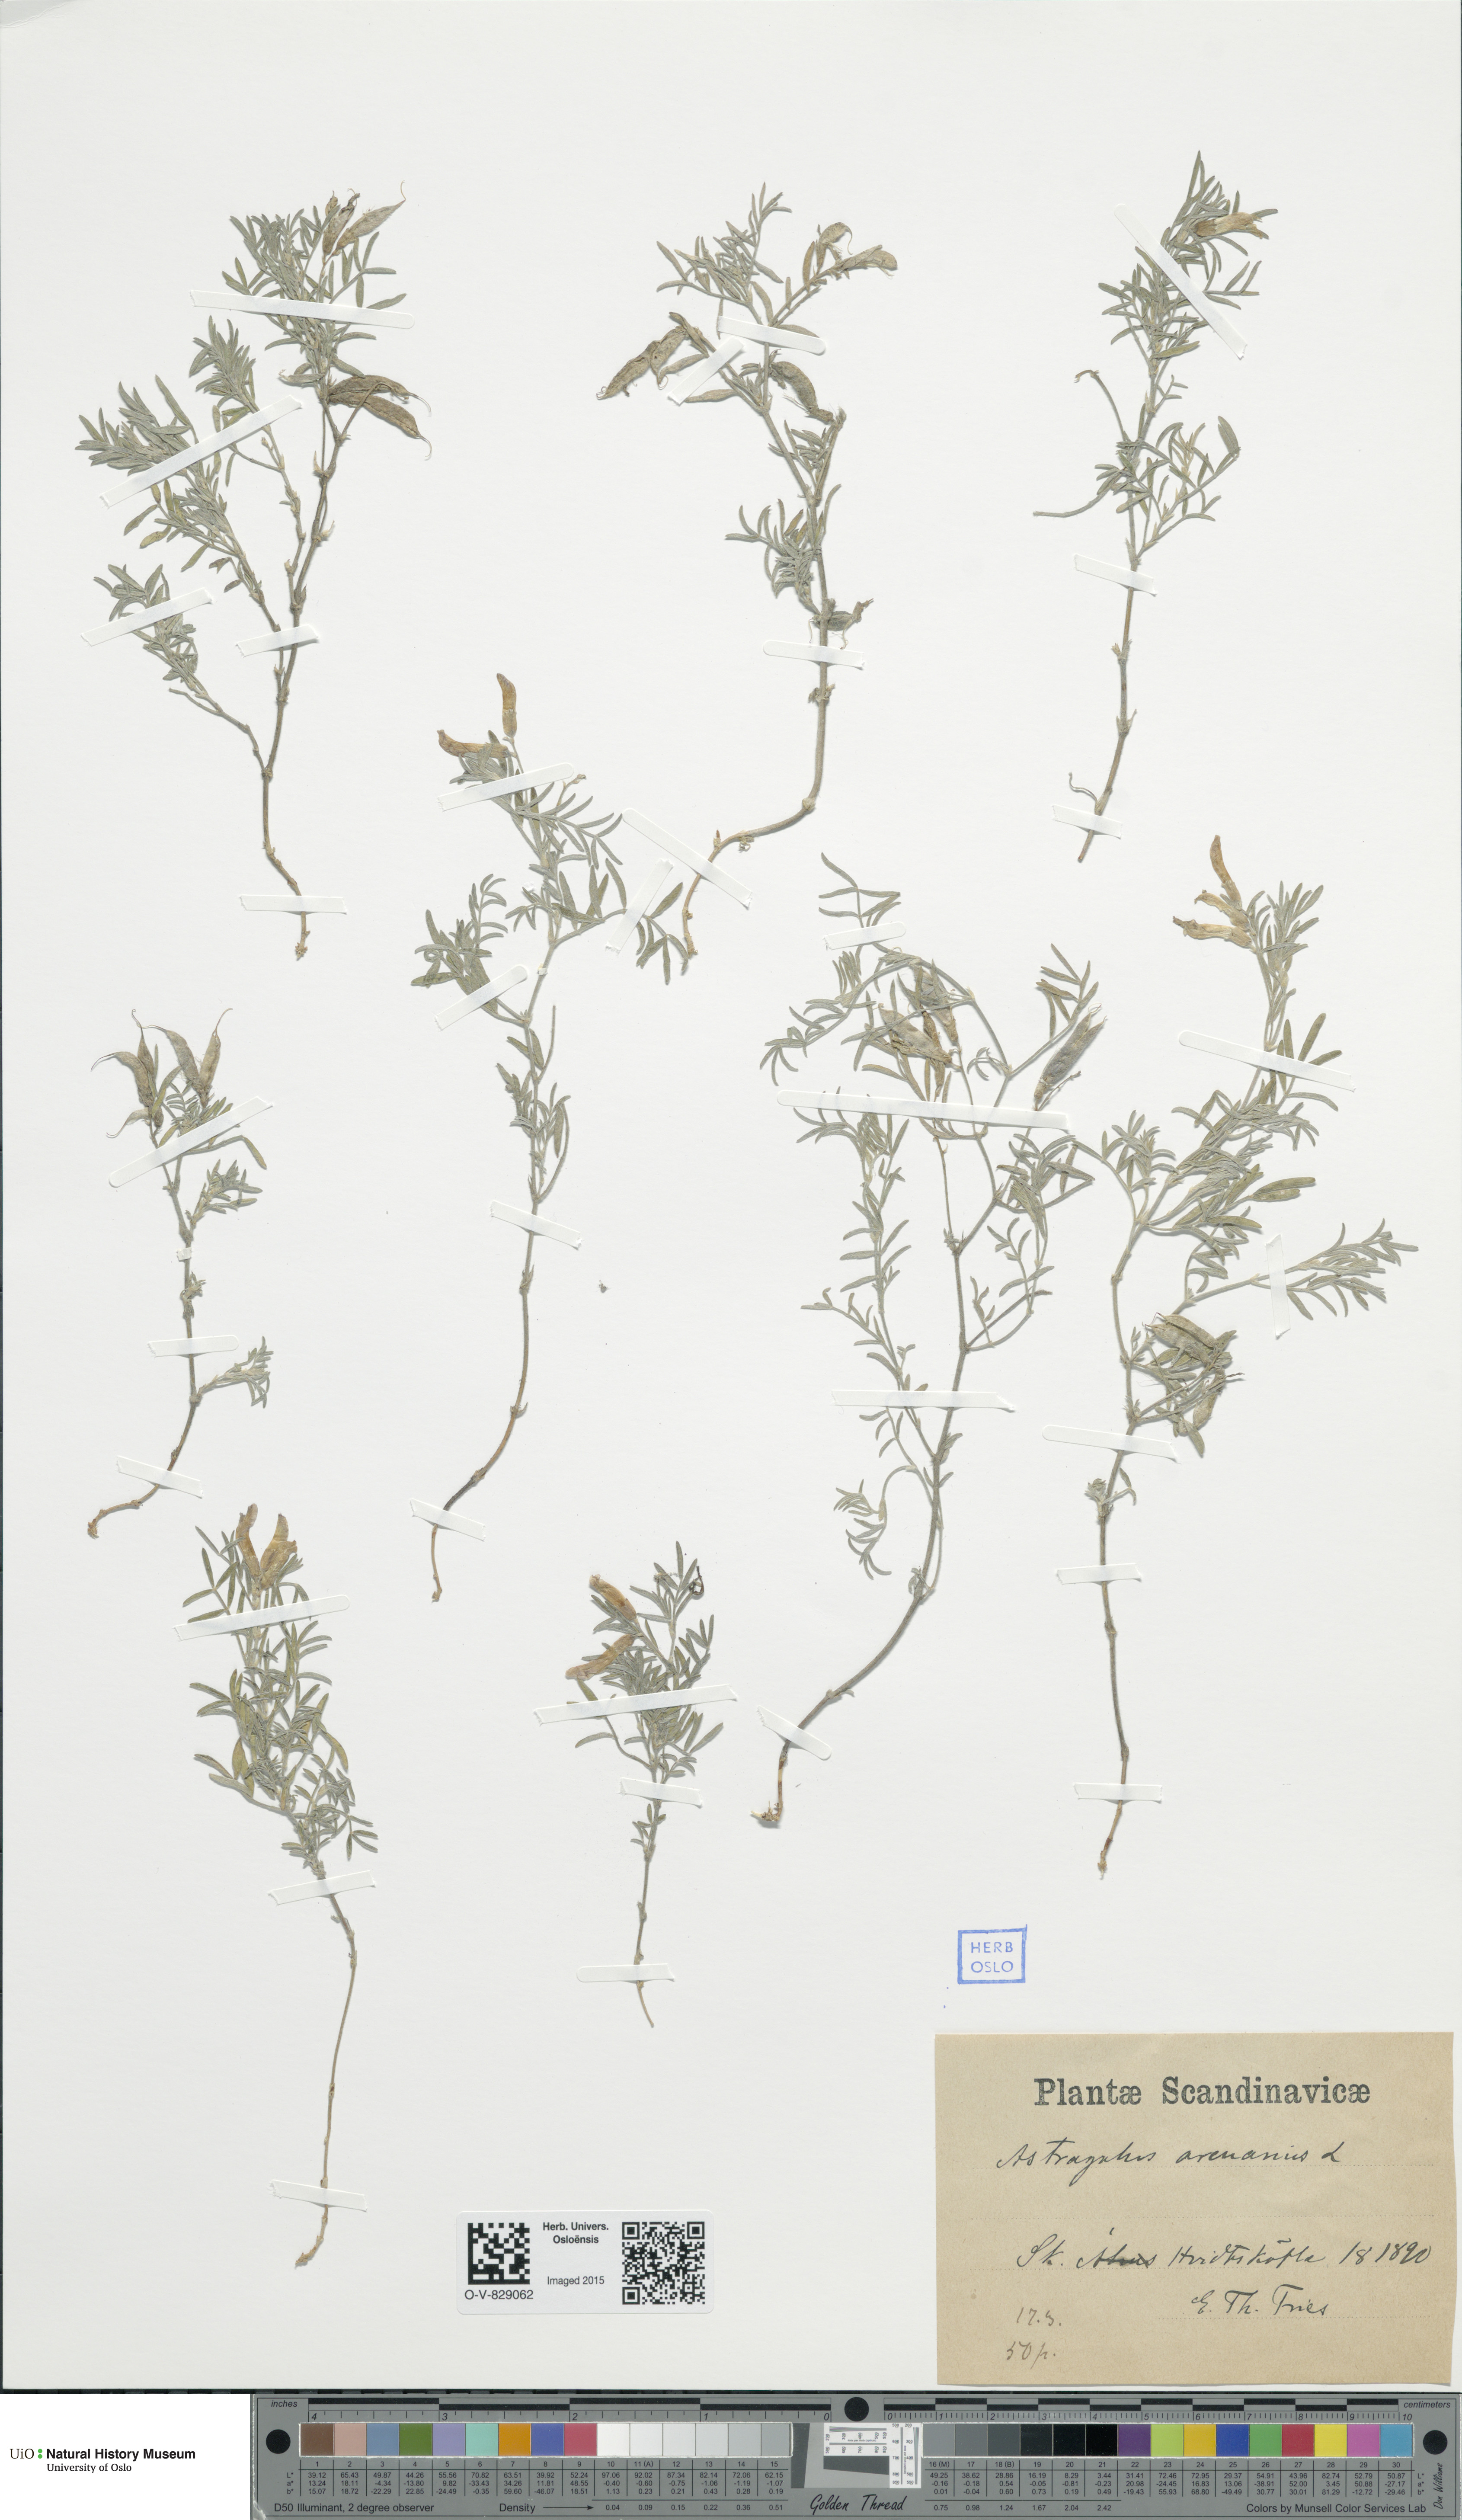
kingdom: Plantae
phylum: Tracheophyta
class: Magnoliopsida
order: Fabales
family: Fabaceae
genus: Astragalus
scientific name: Astragalus arenarius
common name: Arenarious milk-vetch
